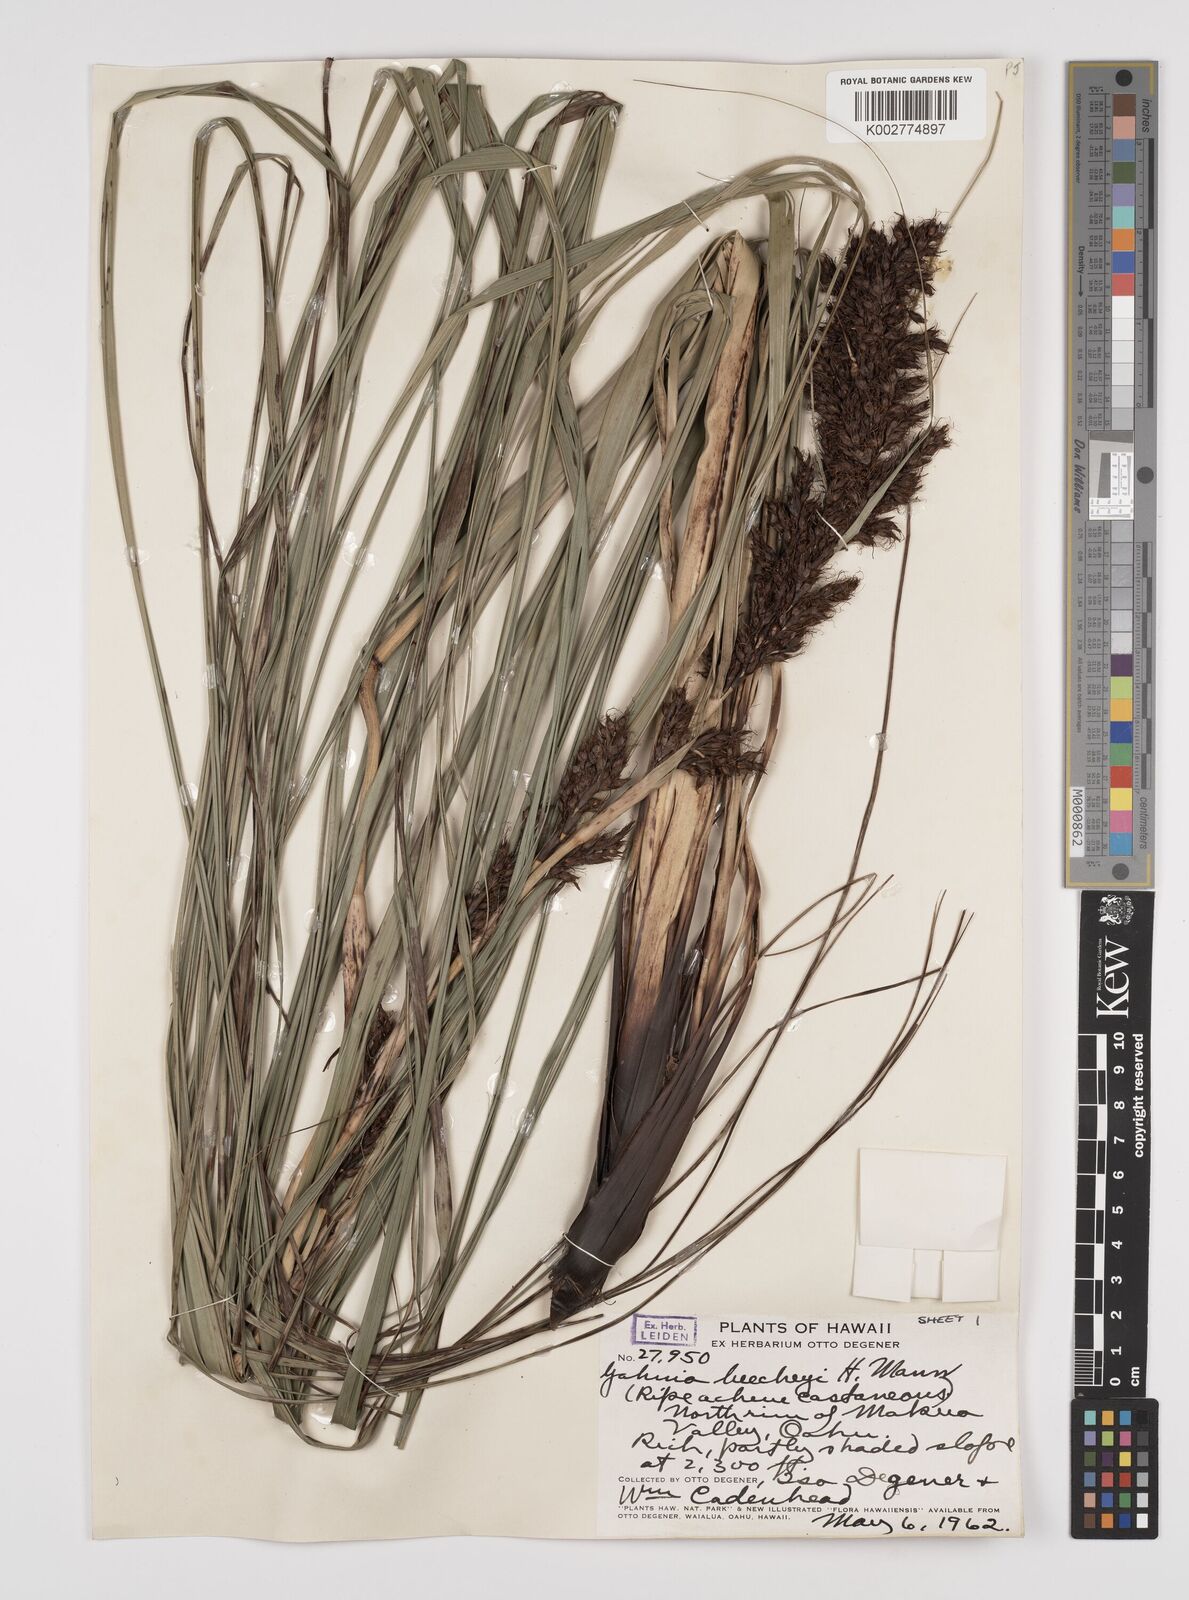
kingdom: Plantae
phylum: Tracheophyta
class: Liliopsida
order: Poales
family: Cyperaceae
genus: Gahnia
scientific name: Gahnia beecheyi
